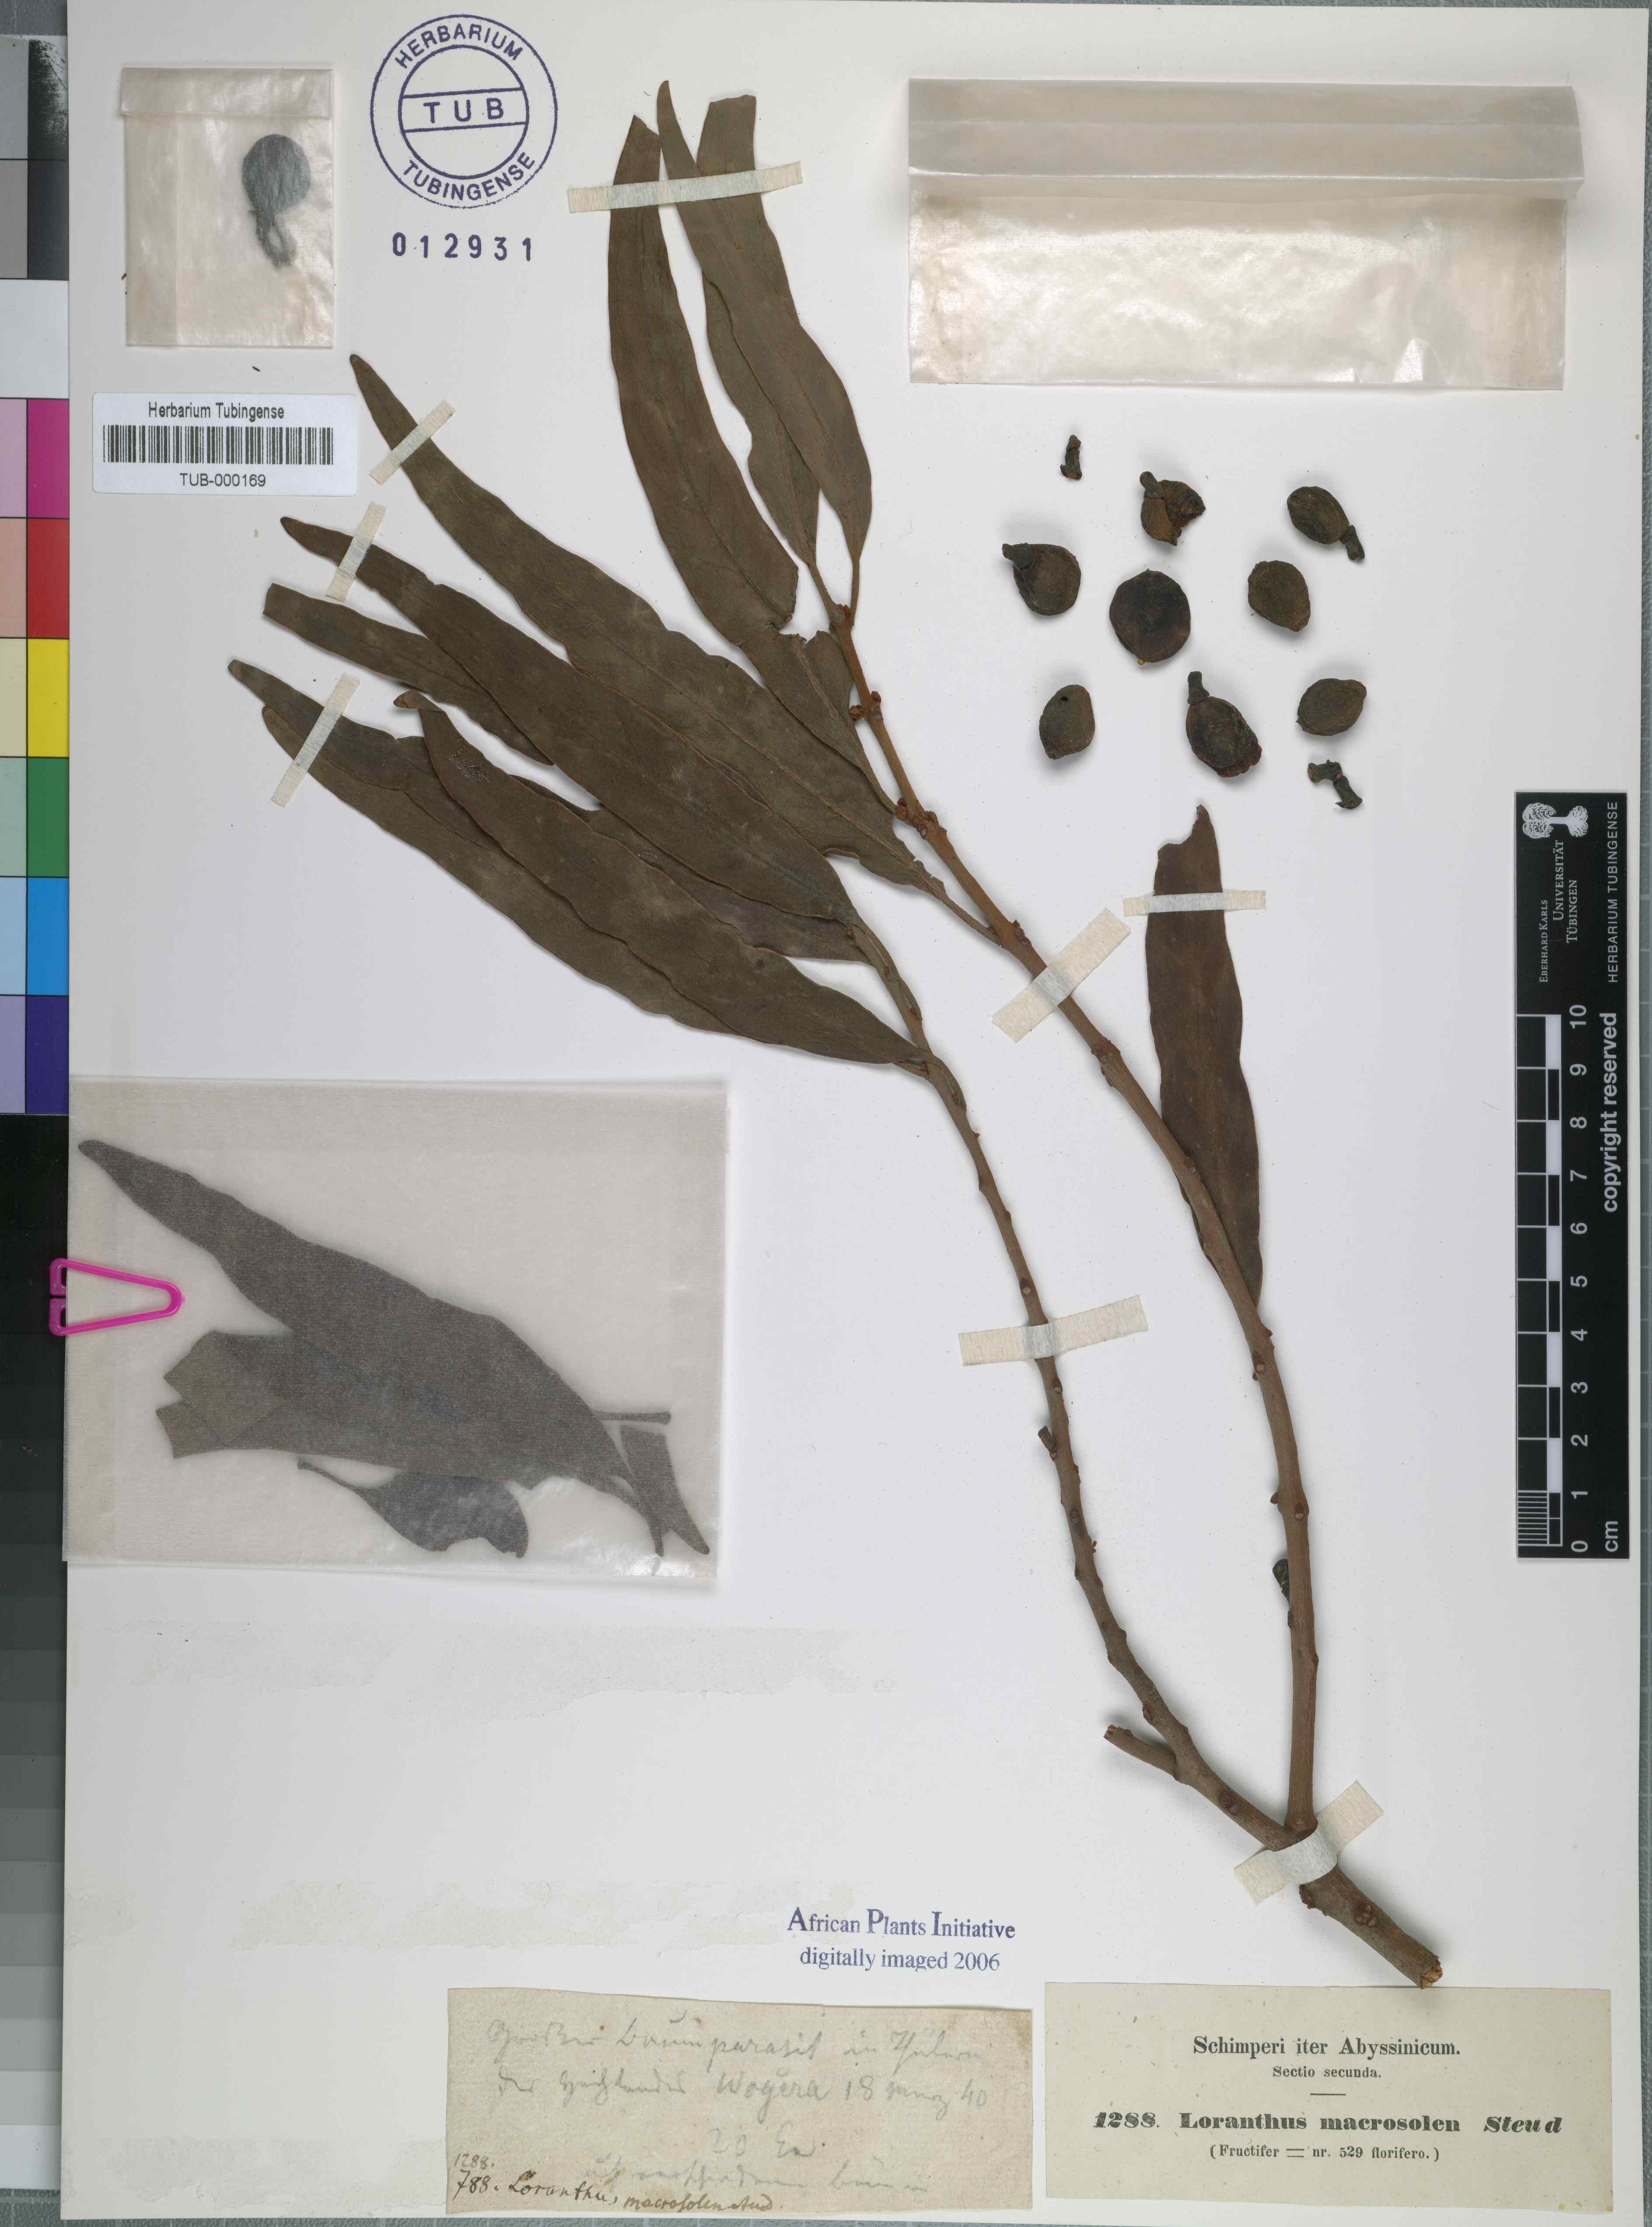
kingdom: Plantae
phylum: Tracheophyta
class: Magnoliopsida
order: Santalales
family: Loranthaceae
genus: Phragmanthera
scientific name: Phragmanthera macrosolen
